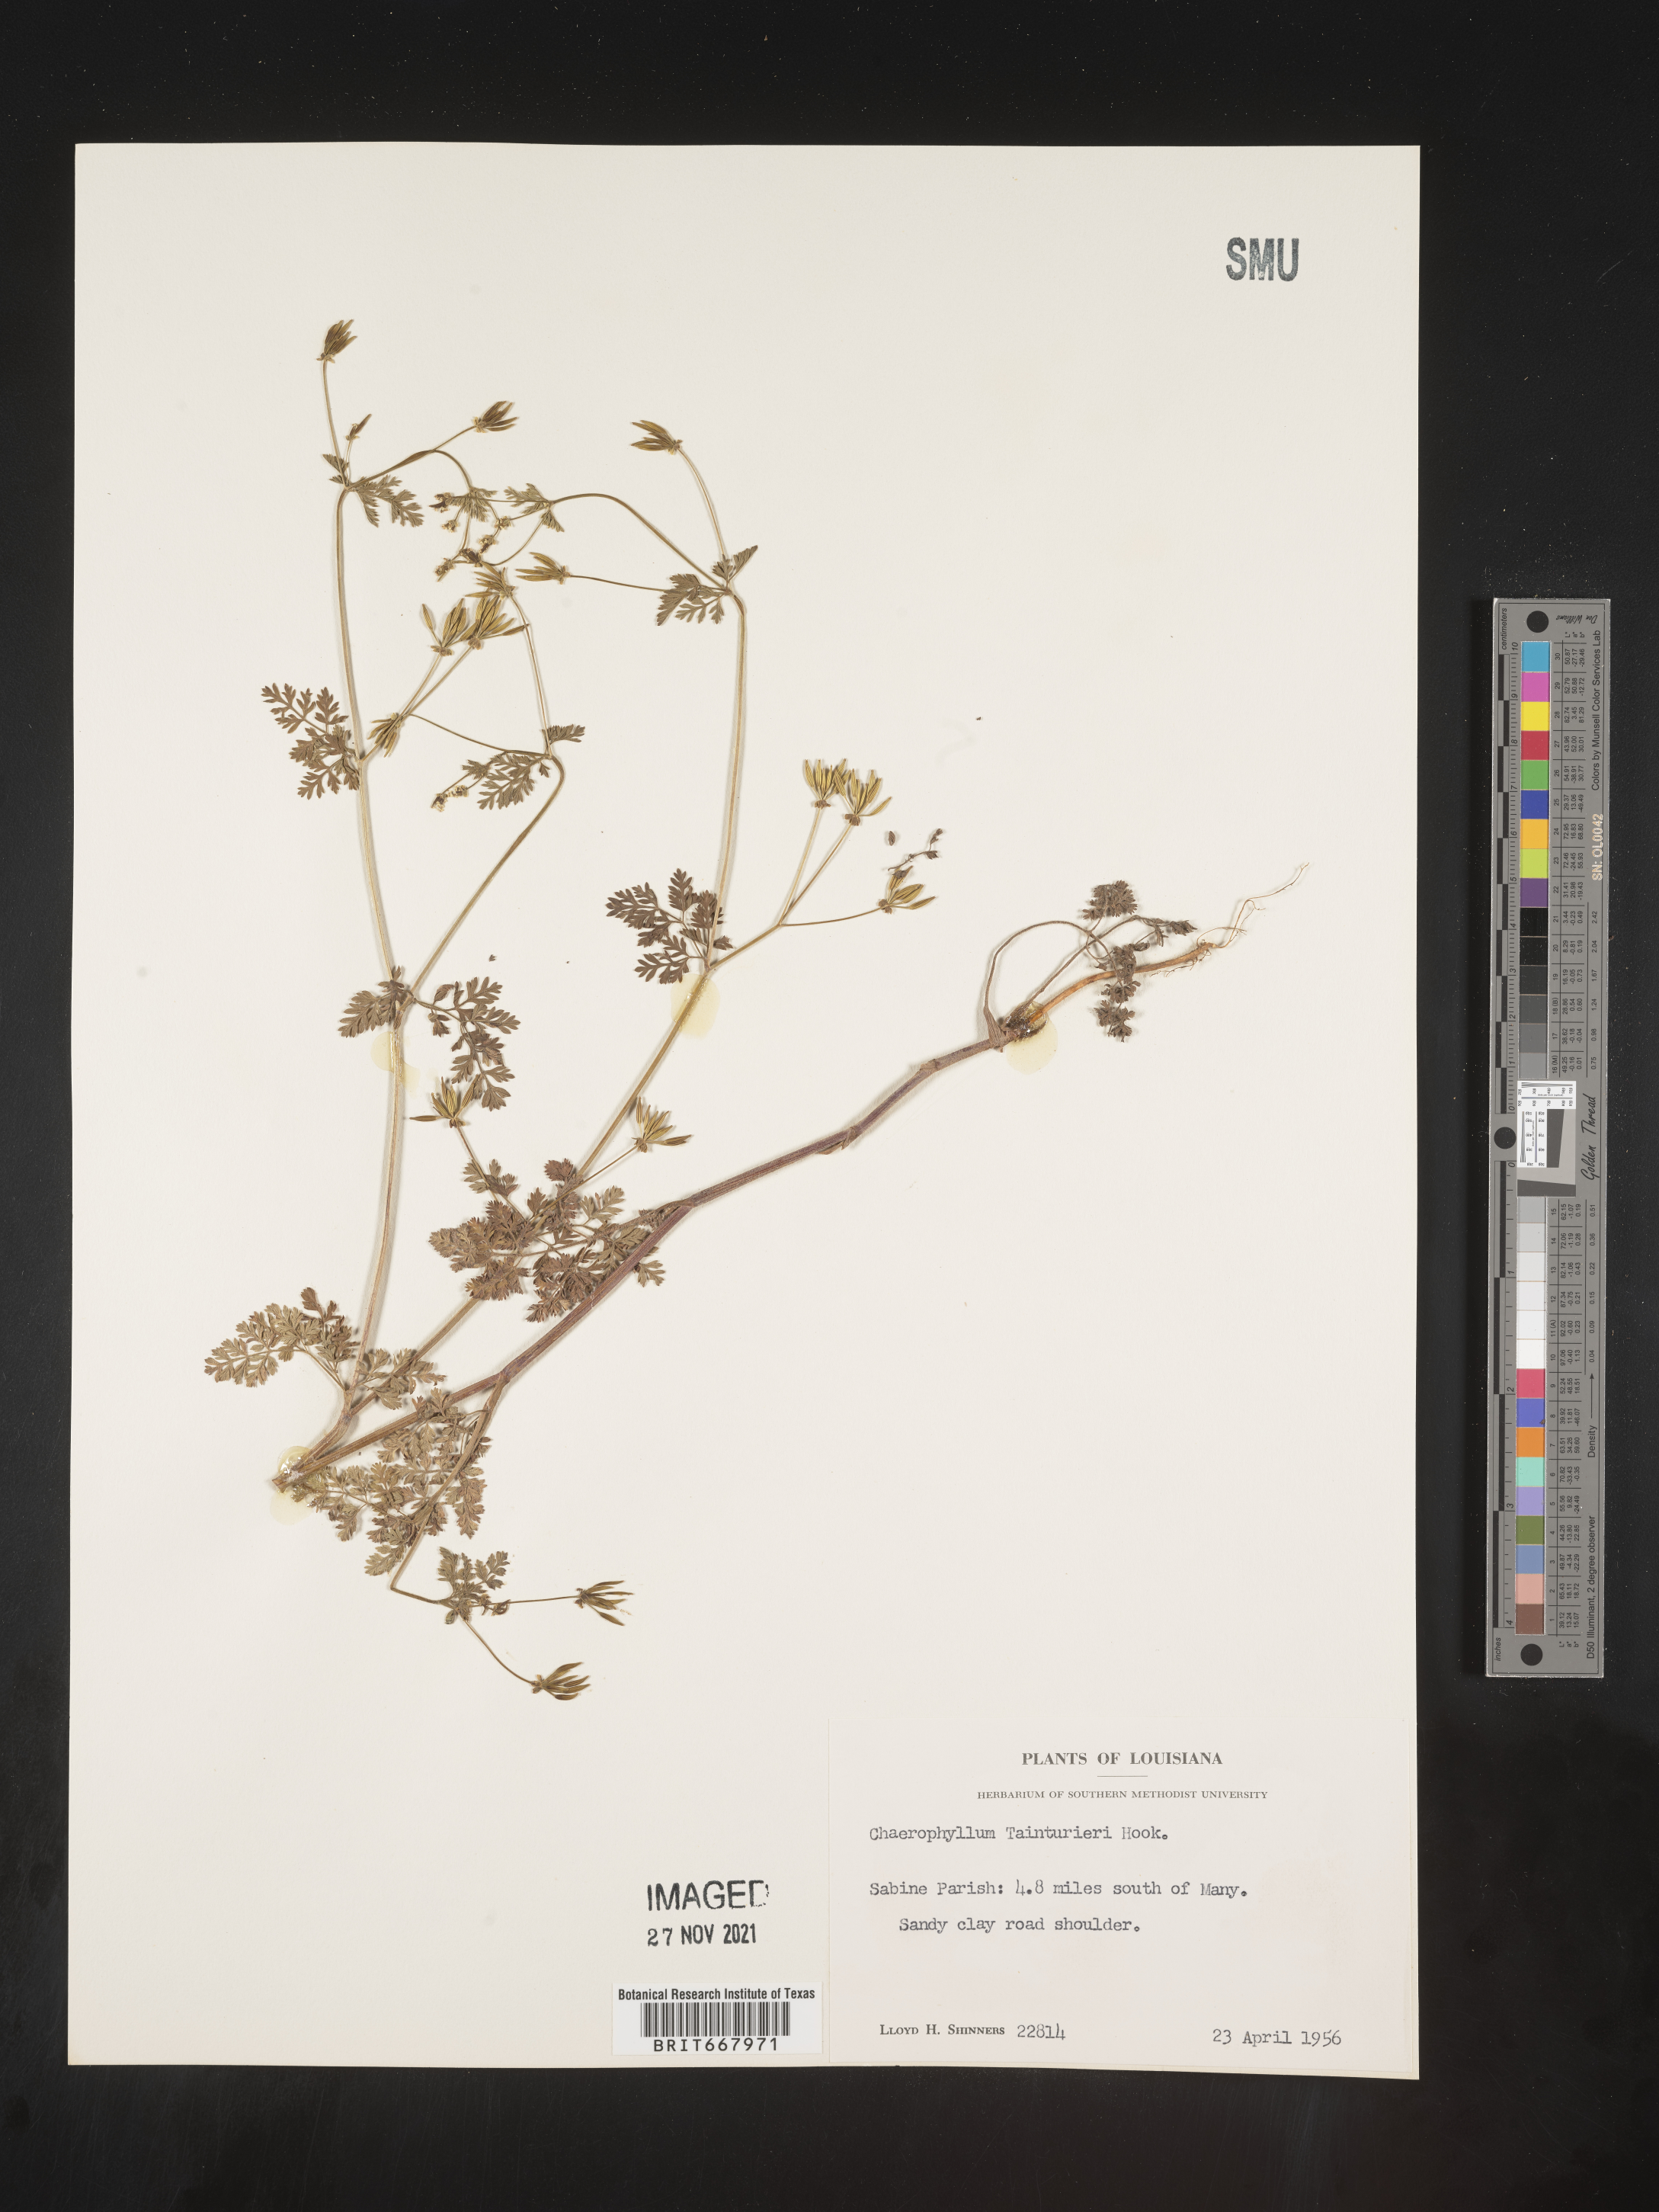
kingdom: Plantae
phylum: Tracheophyta
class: Magnoliopsida
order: Apiales
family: Apiaceae
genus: Chaerophyllum
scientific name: Chaerophyllum tainturieri
